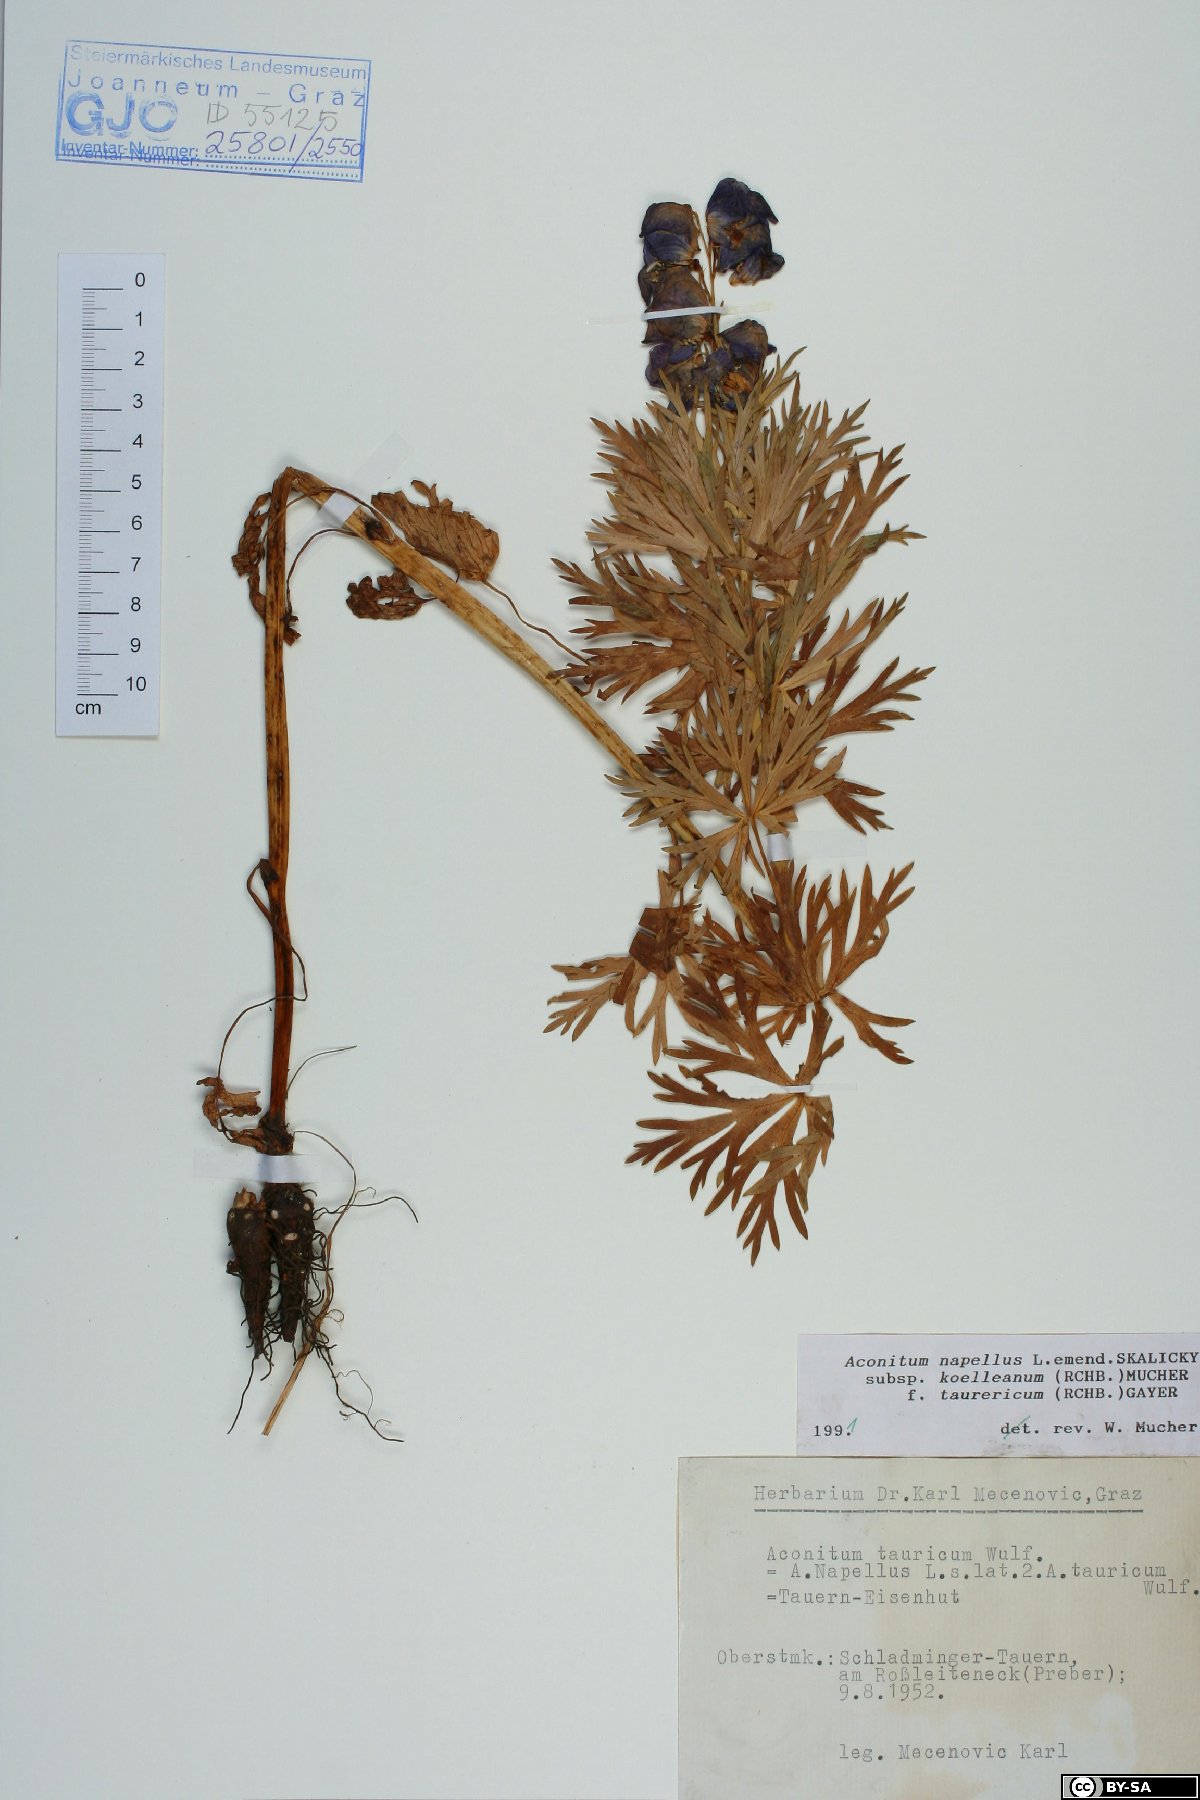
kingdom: Plantae
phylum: Tracheophyta
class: Magnoliopsida
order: Ranunculales
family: Ranunculaceae
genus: Aconitum
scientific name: Aconitum tauricum
